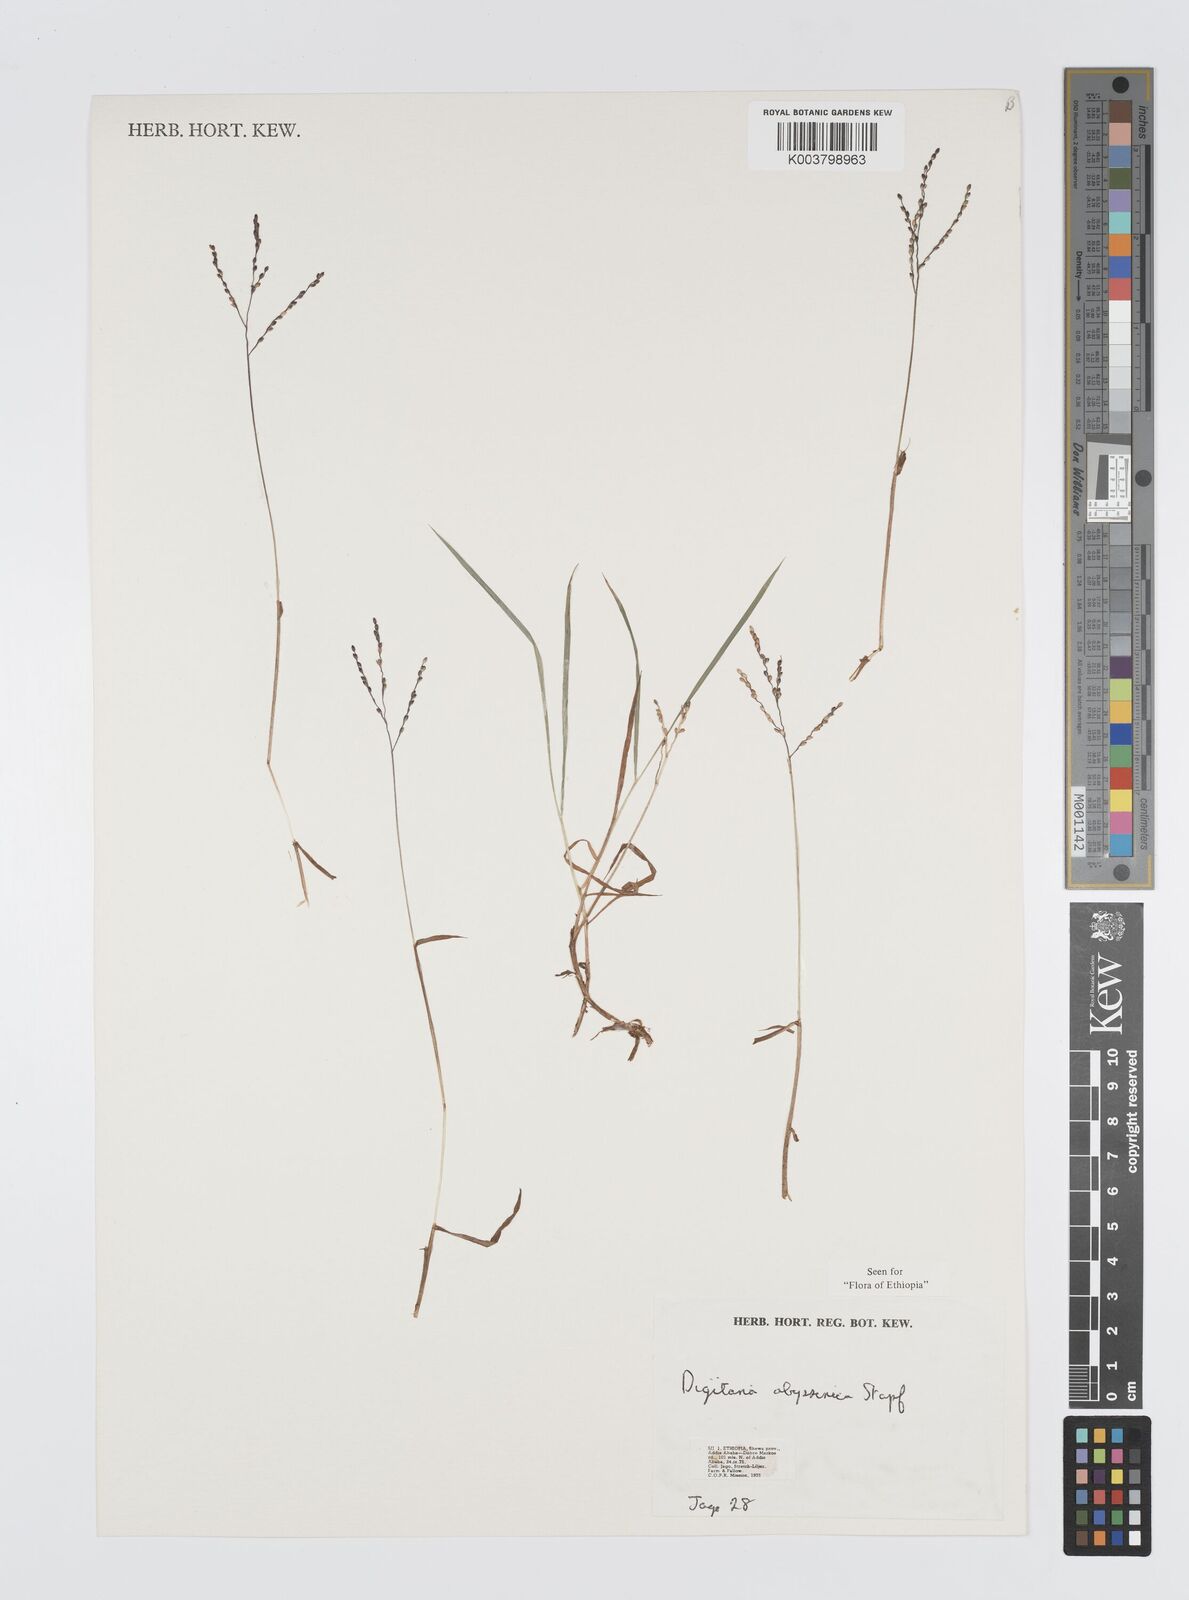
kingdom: Plantae
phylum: Tracheophyta
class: Liliopsida
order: Poales
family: Poaceae
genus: Digitaria
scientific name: Digitaria abyssinica
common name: African couchgrass
